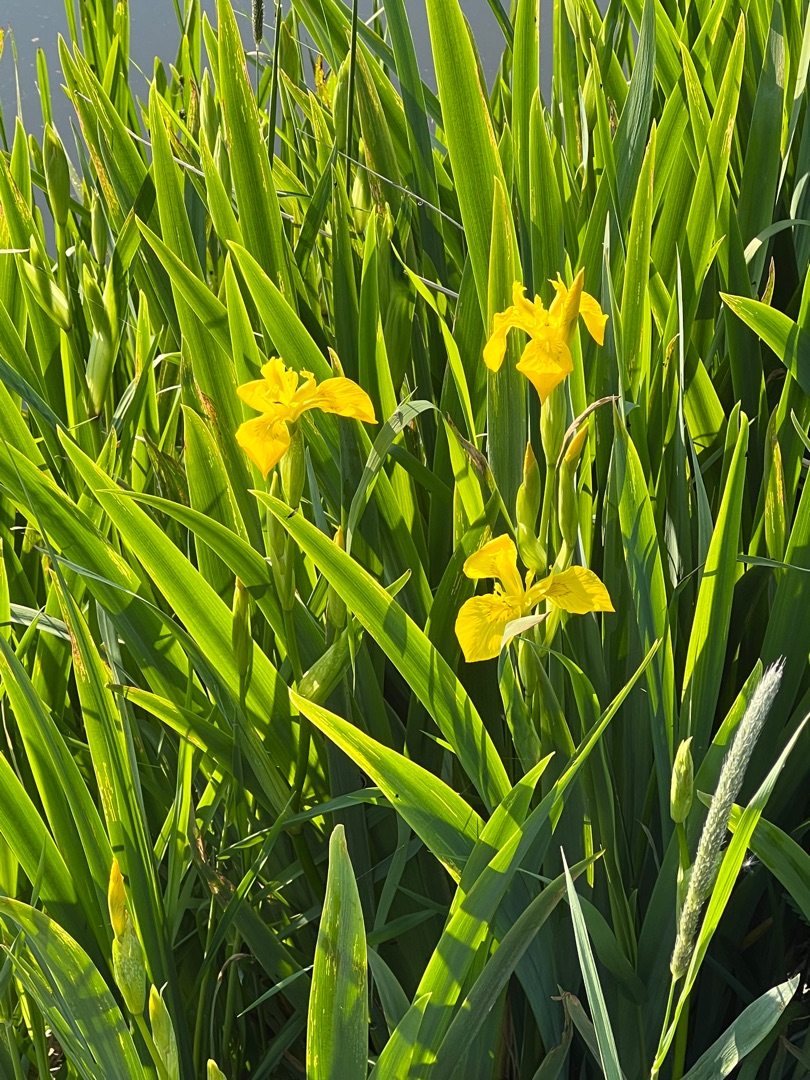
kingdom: Plantae
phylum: Tracheophyta
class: Liliopsida
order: Asparagales
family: Iridaceae
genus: Iris
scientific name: Iris pseudacorus
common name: Gul iris
